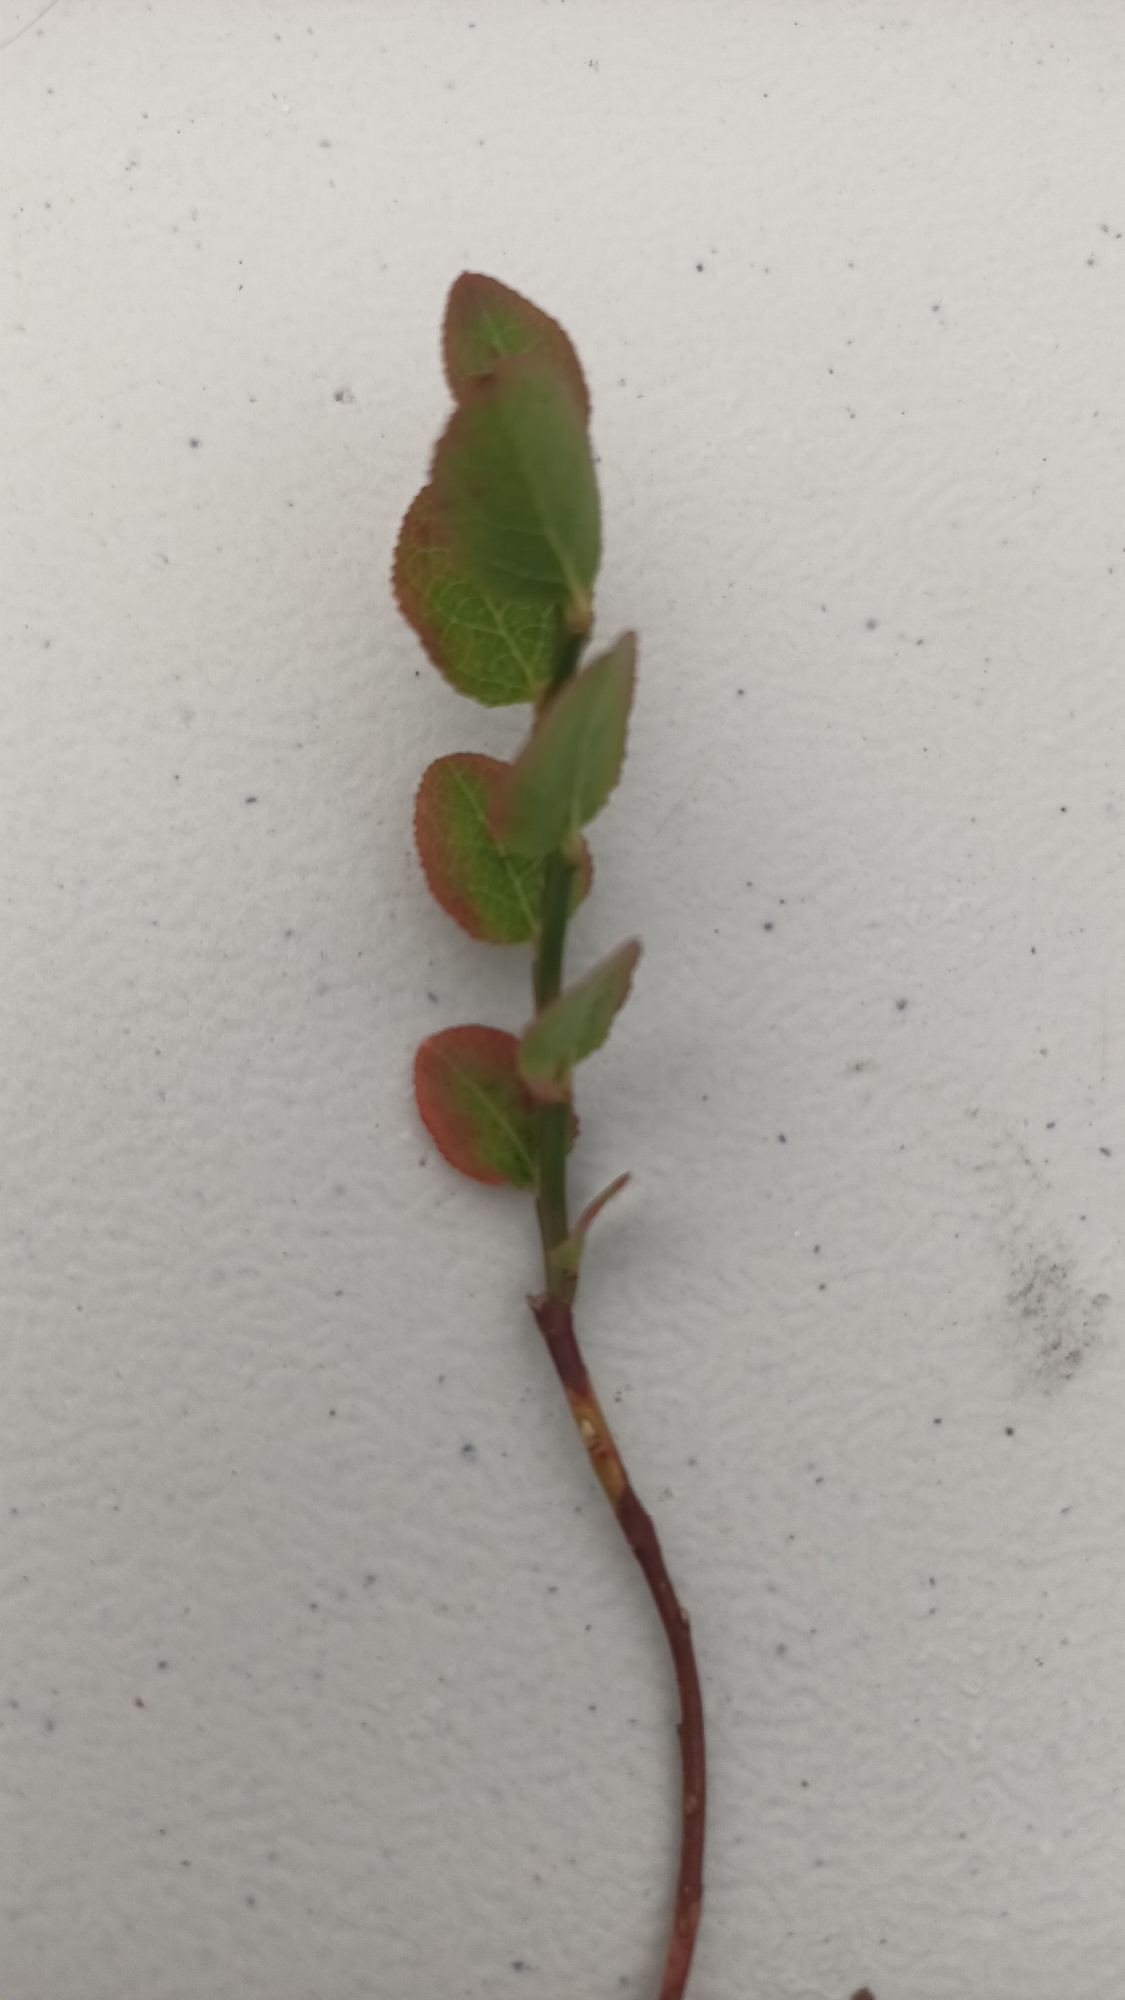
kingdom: Plantae
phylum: Tracheophyta
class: Magnoliopsida
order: Ericales
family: Ericaceae
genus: Vaccinium
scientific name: Vaccinium myrtillus
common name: Blåbær
